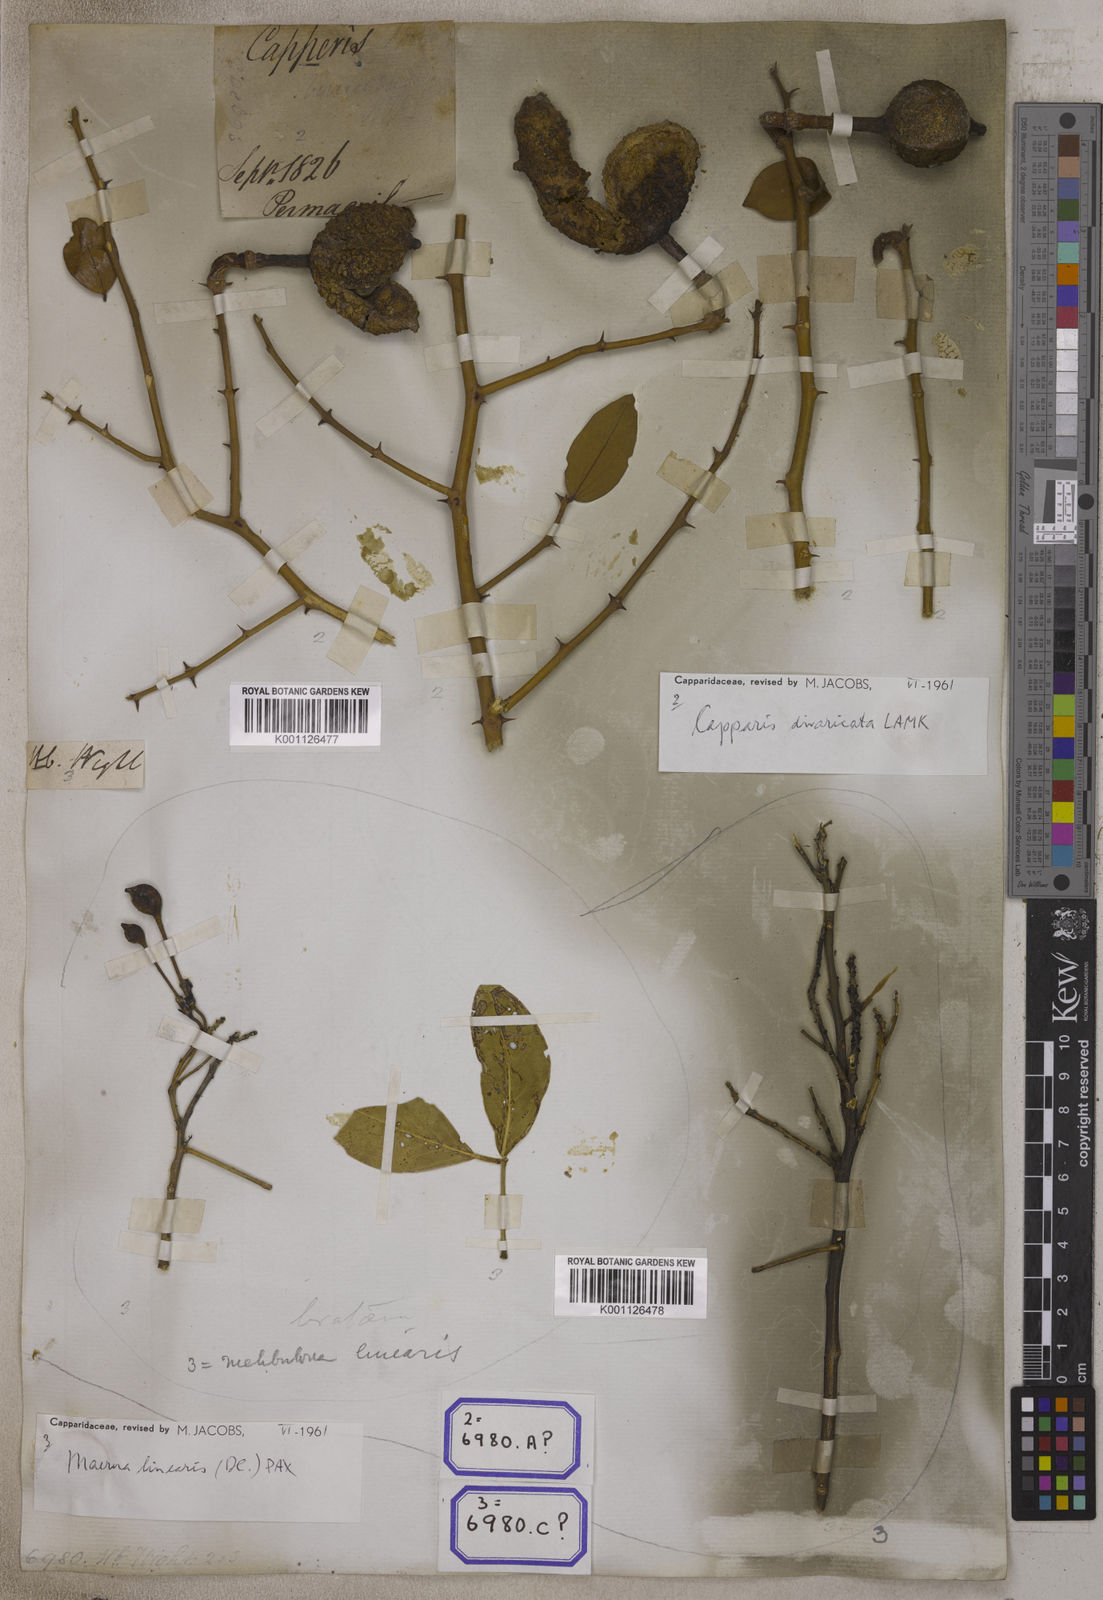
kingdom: Plantae
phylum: Tracheophyta
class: Magnoliopsida
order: Brassicales
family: Capparaceae
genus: Capparis
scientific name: Capparis divaricata
